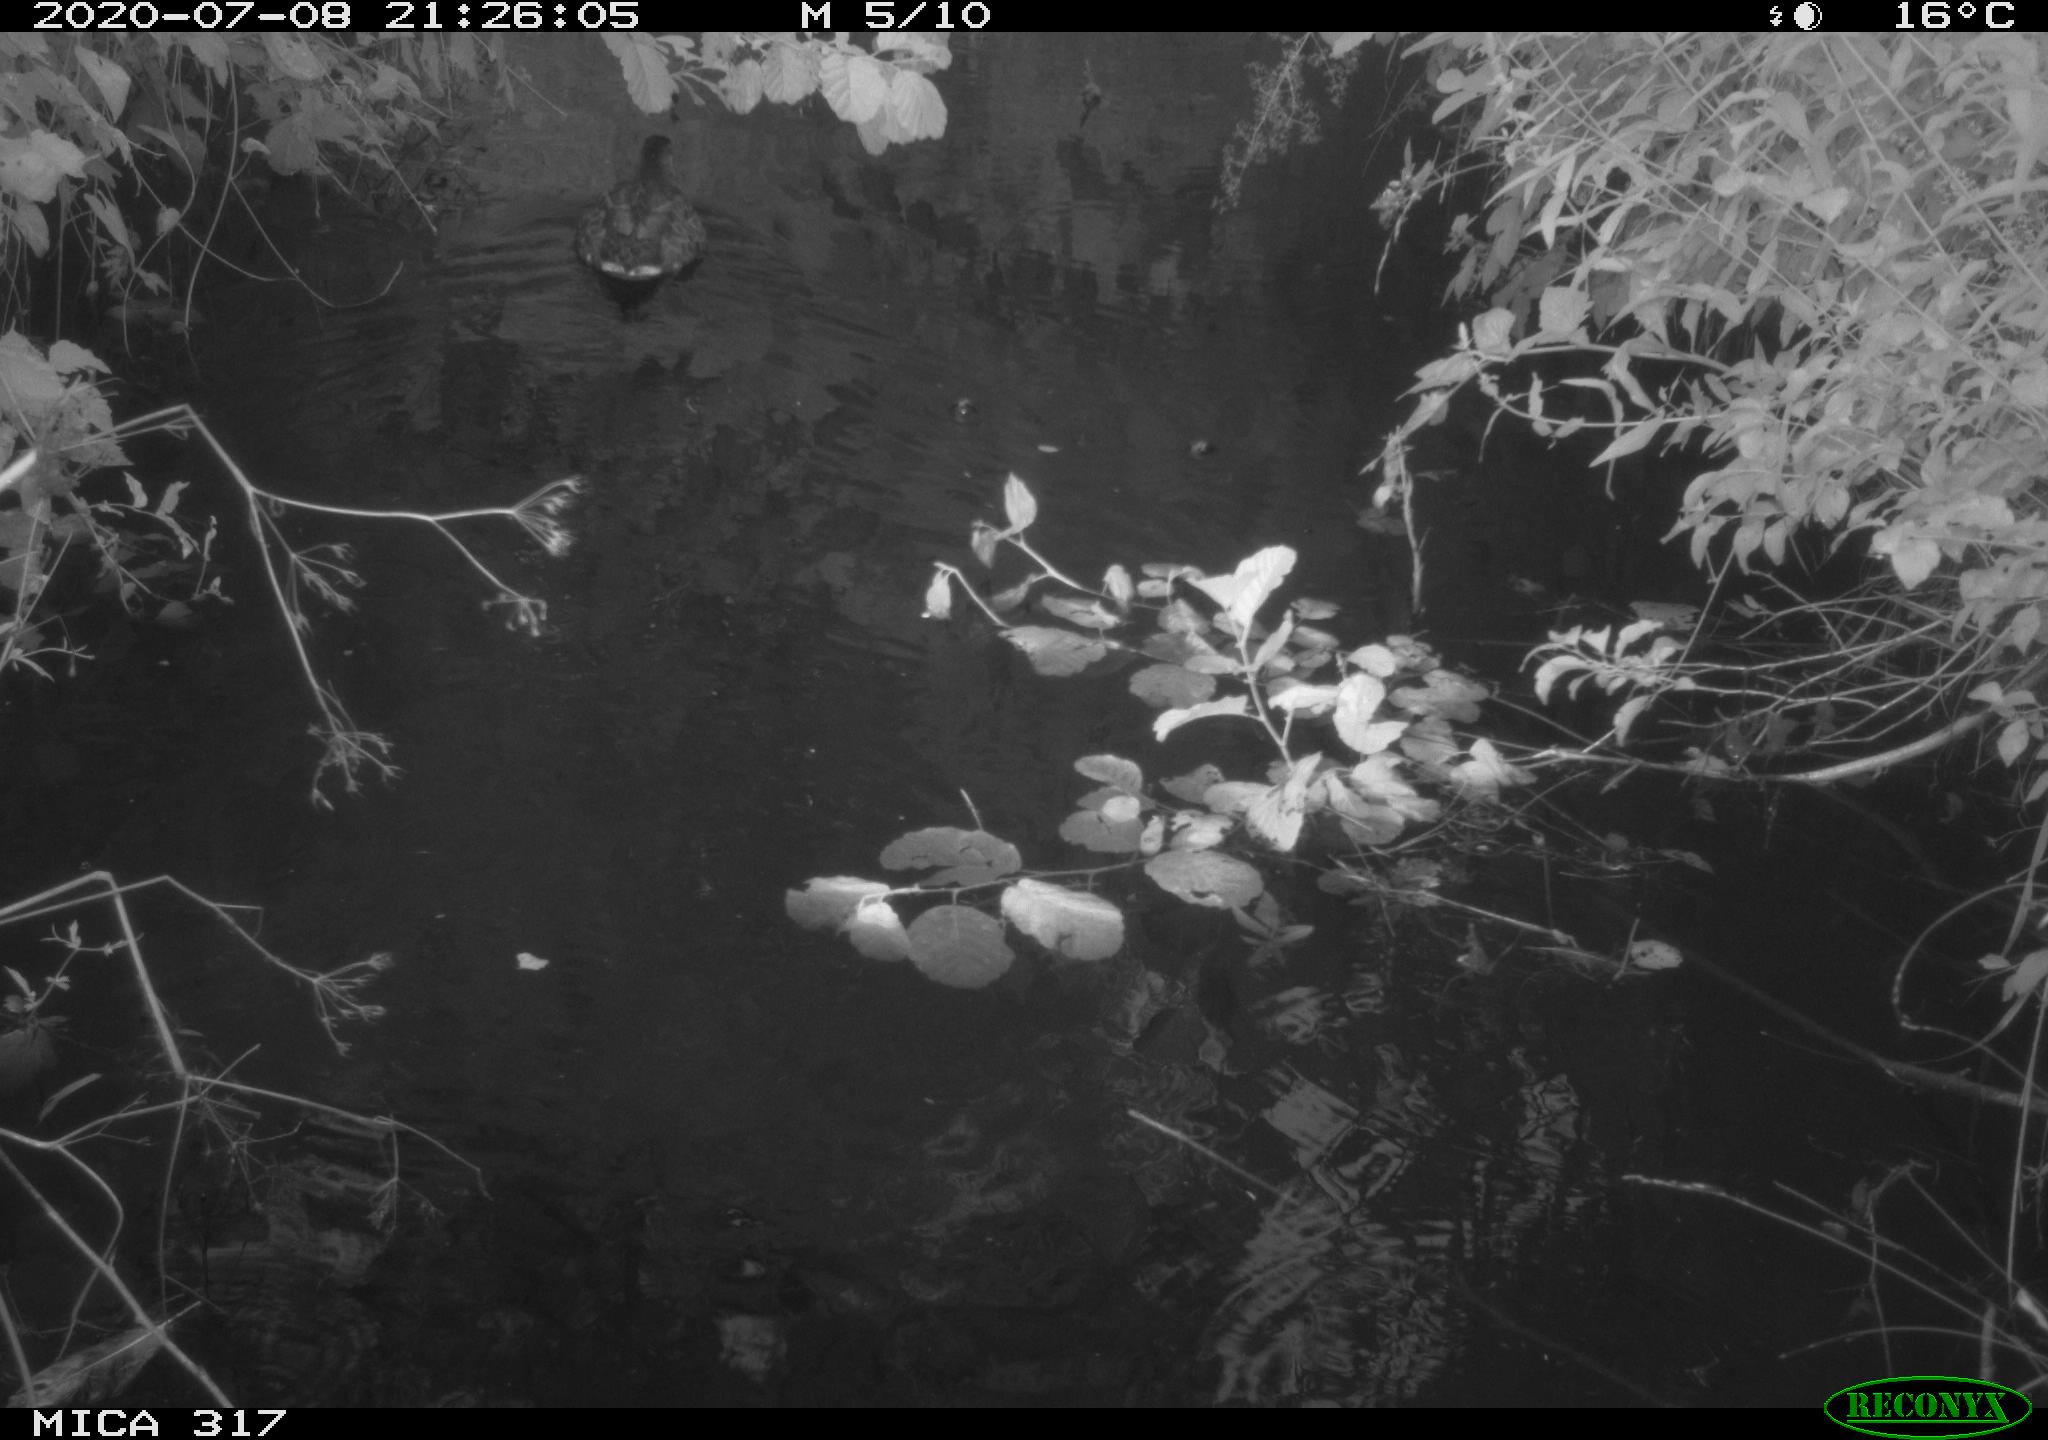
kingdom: Animalia
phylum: Chordata
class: Aves
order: Anseriformes
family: Anatidae
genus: Anas
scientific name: Anas platyrhynchos
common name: Mallard
